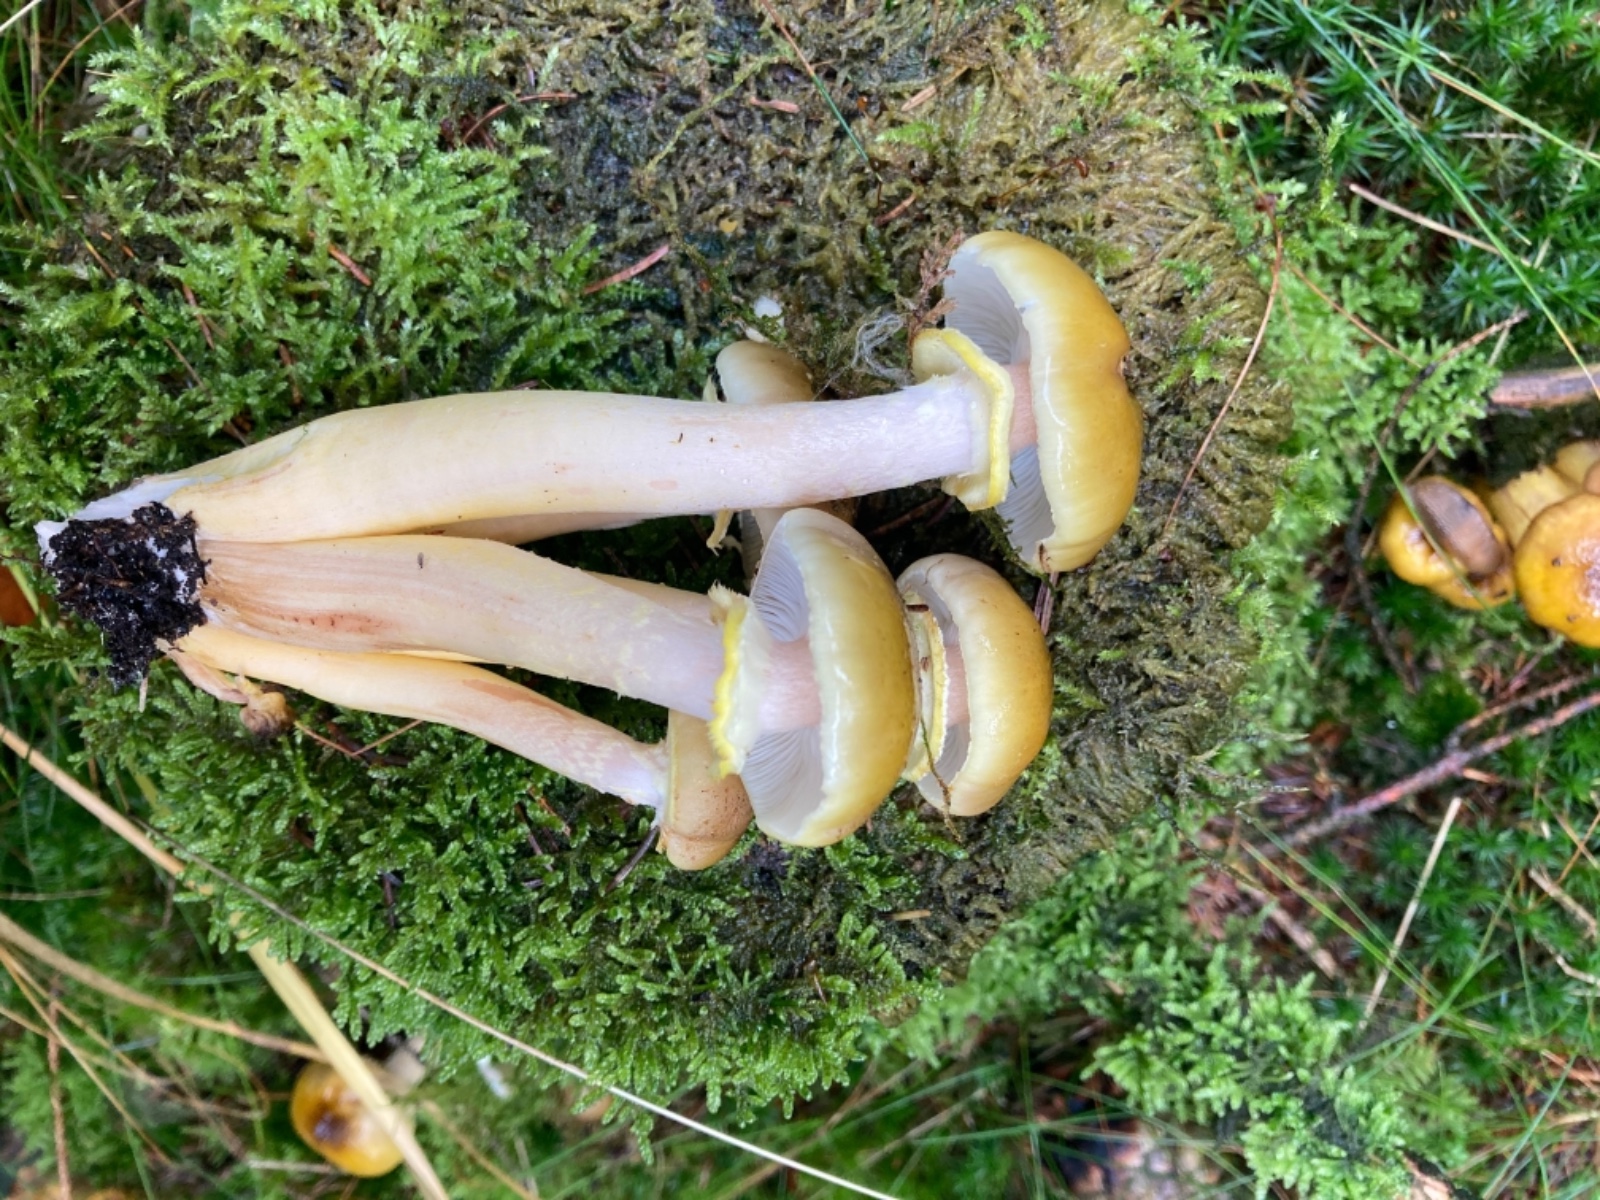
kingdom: Fungi
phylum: Basidiomycota
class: Agaricomycetes
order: Agaricales
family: Physalacriaceae
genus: Armillaria
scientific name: Armillaria mellea
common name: ægte honningsvamp
